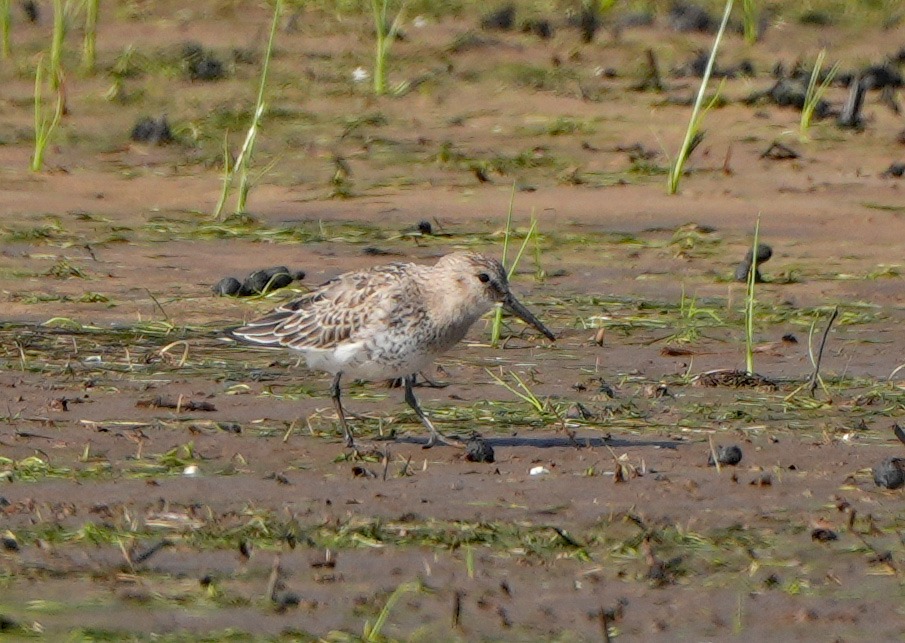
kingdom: Animalia
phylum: Chordata
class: Aves
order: Charadriiformes
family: Scolopacidae
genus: Calidris
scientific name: Calidris alpina
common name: Almindelig ryle
